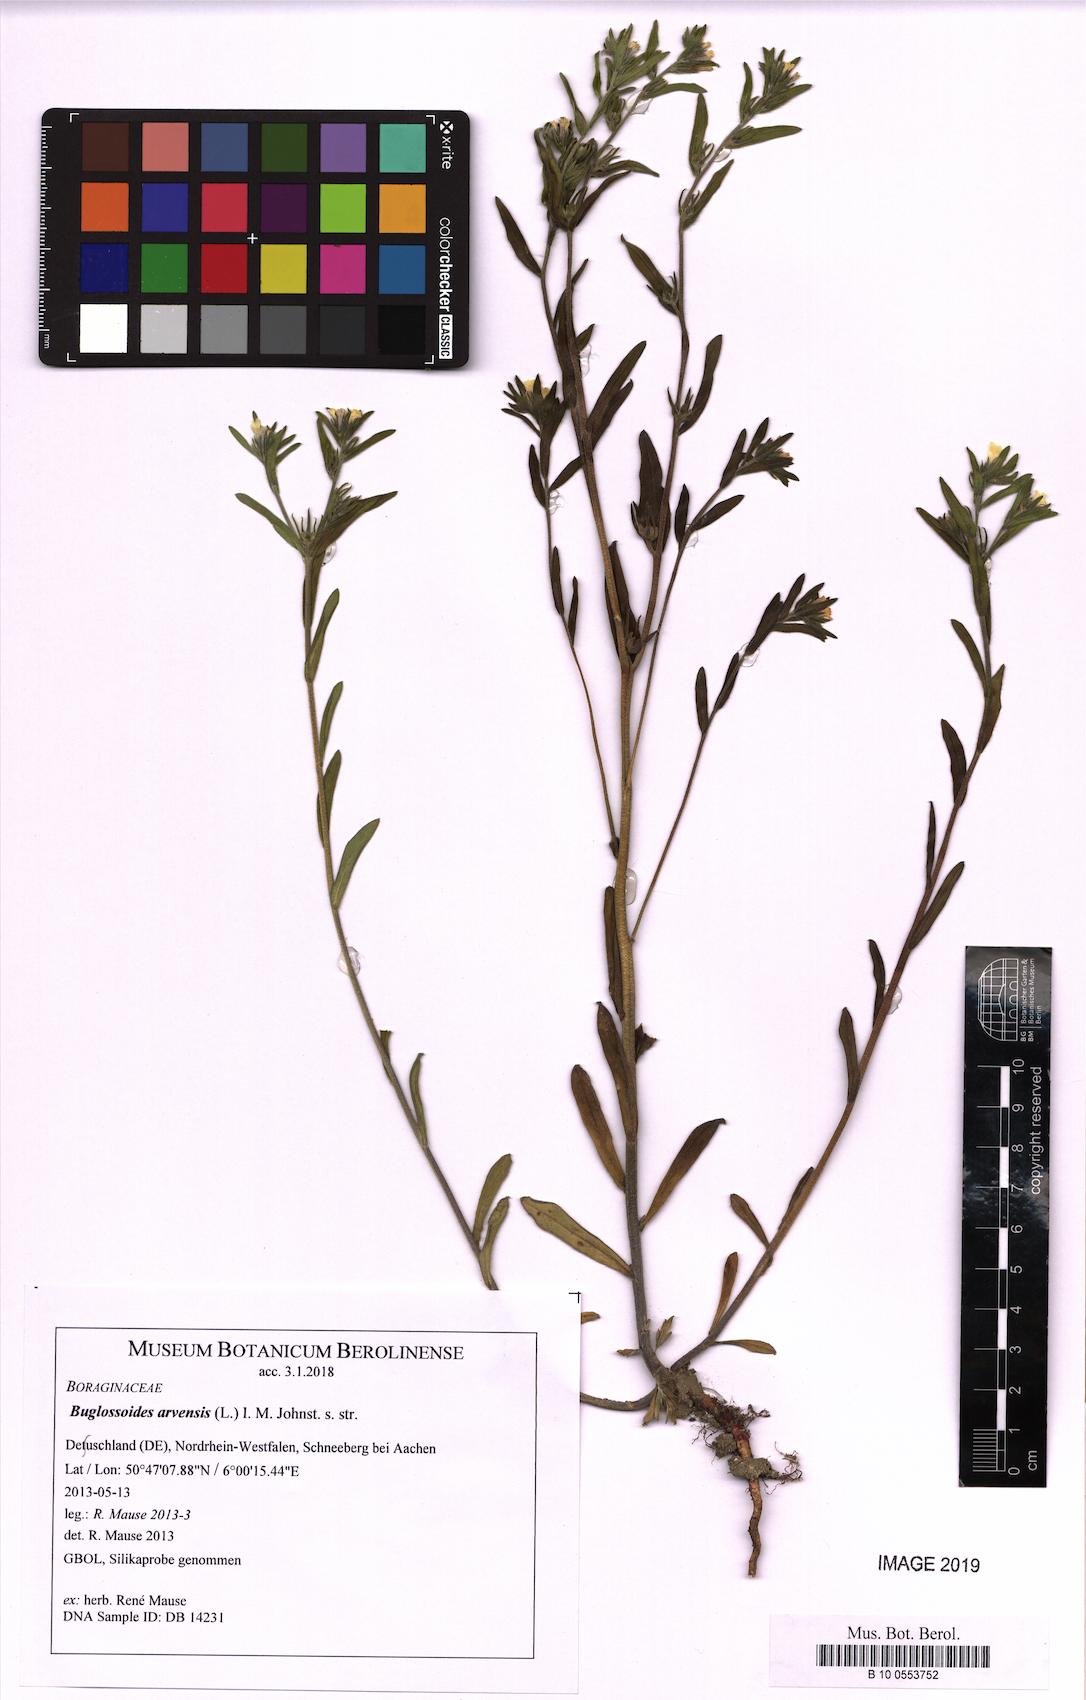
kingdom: Plantae
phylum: Tracheophyta
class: Magnoliopsida
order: Boraginales
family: Boraginaceae
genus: Buglossoides
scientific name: Buglossoides arvensis
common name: Corn gromwell
